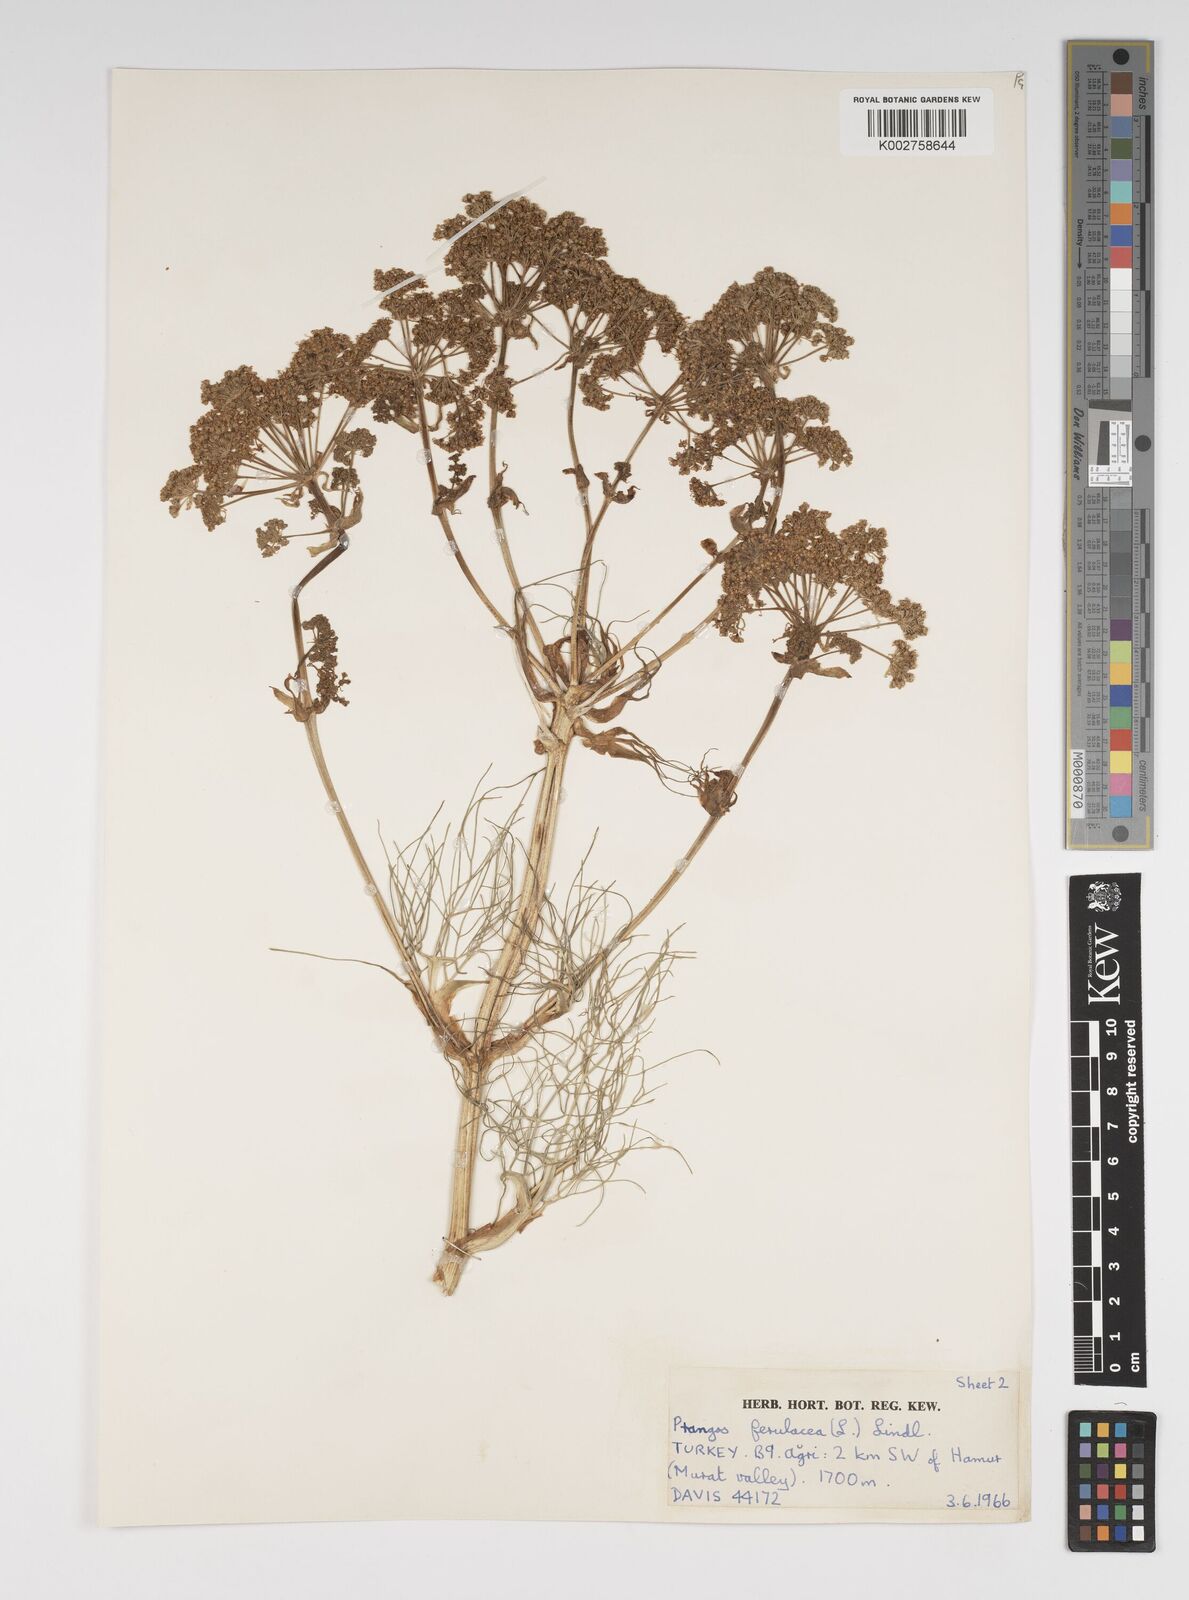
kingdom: Plantae
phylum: Tracheophyta
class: Magnoliopsida
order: Apiales
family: Apiaceae
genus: Prangos
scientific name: Prangos ferulacea
